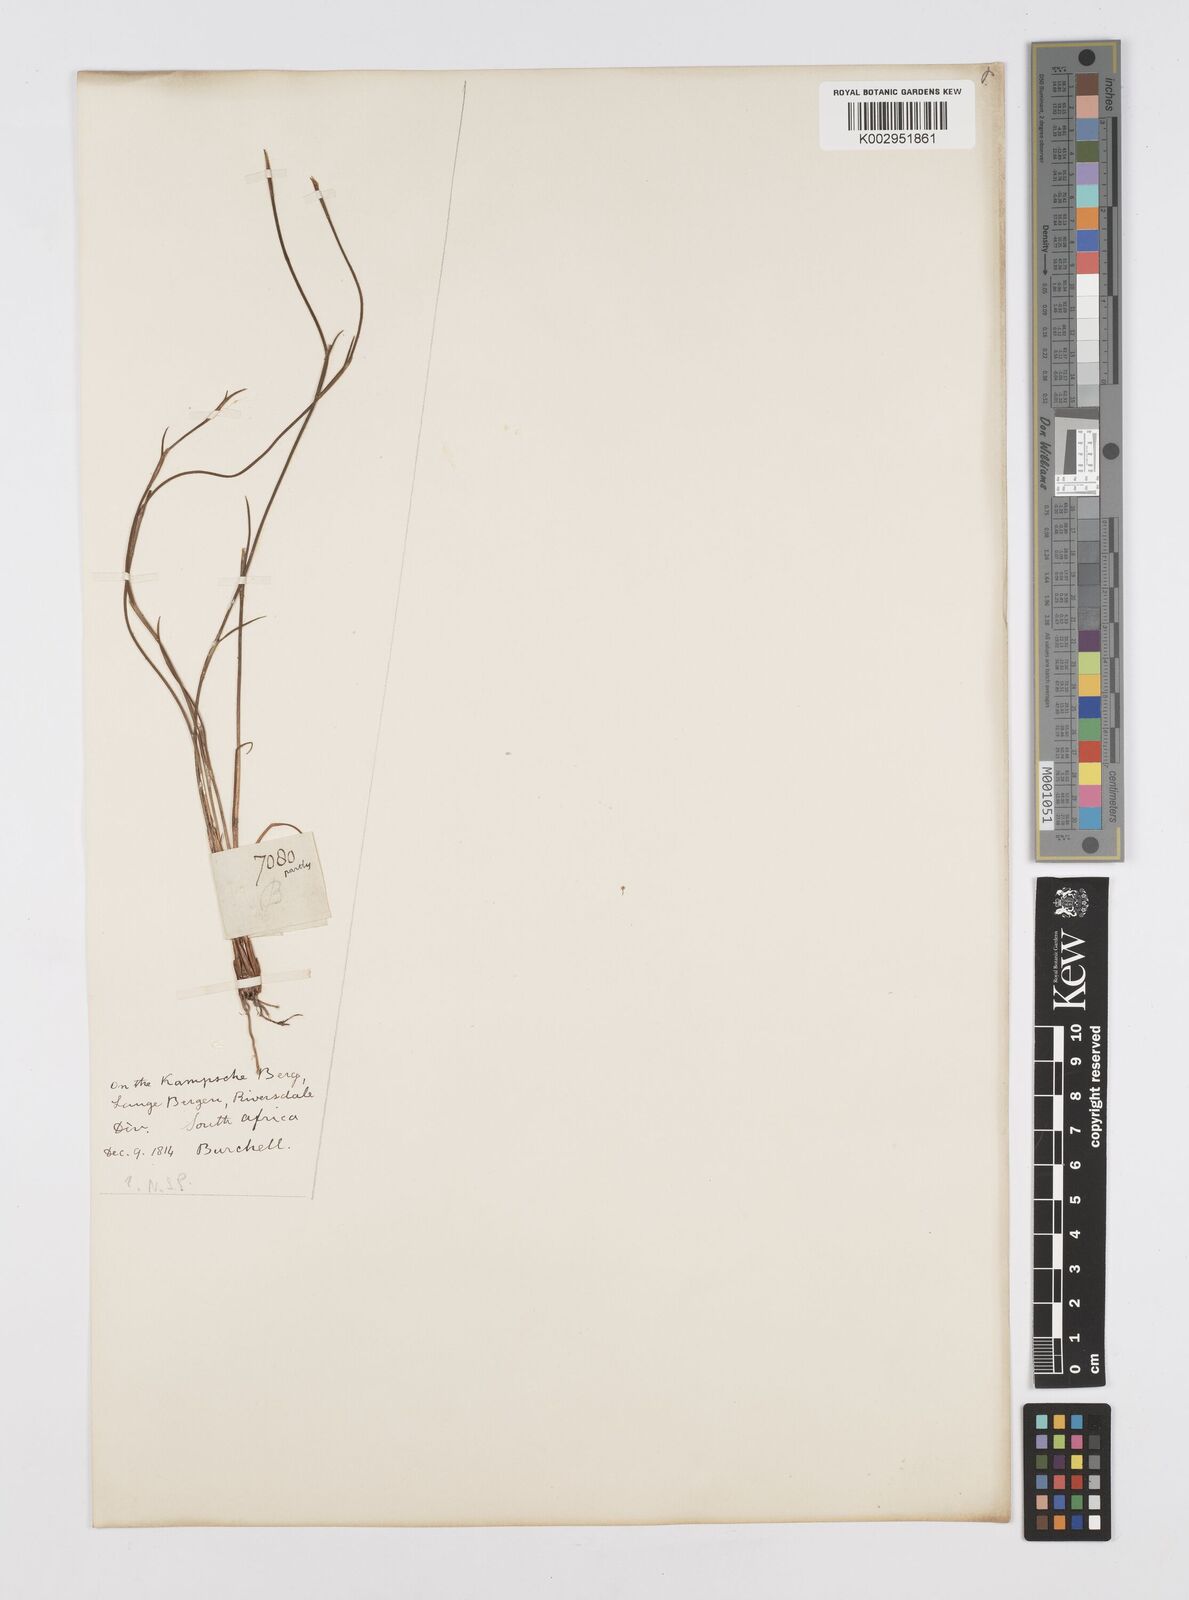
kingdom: Plantae
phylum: Tracheophyta
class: Liliopsida
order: Poales
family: Restionaceae
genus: Restio
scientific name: Restio
